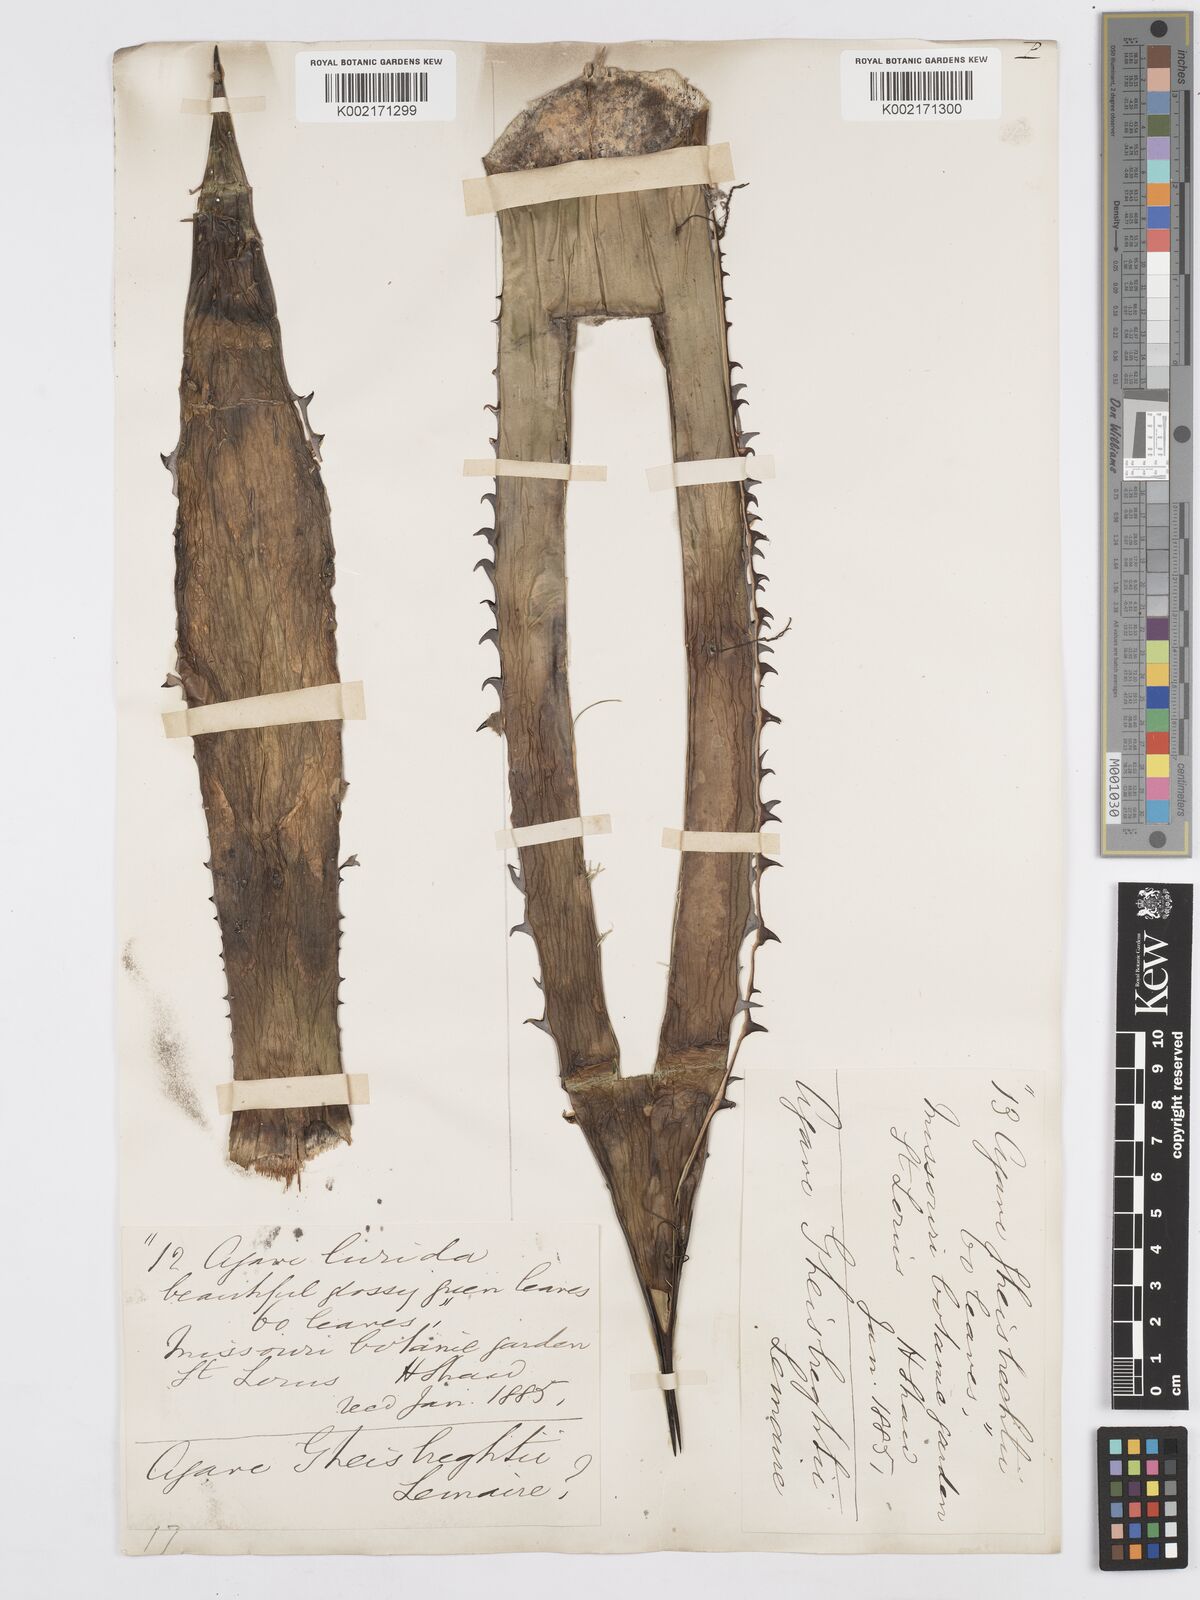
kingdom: Plantae
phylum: Tracheophyta
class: Liliopsida
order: Asparagales
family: Asparagaceae
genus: Agave
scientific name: Agave ghiesbreghtii
